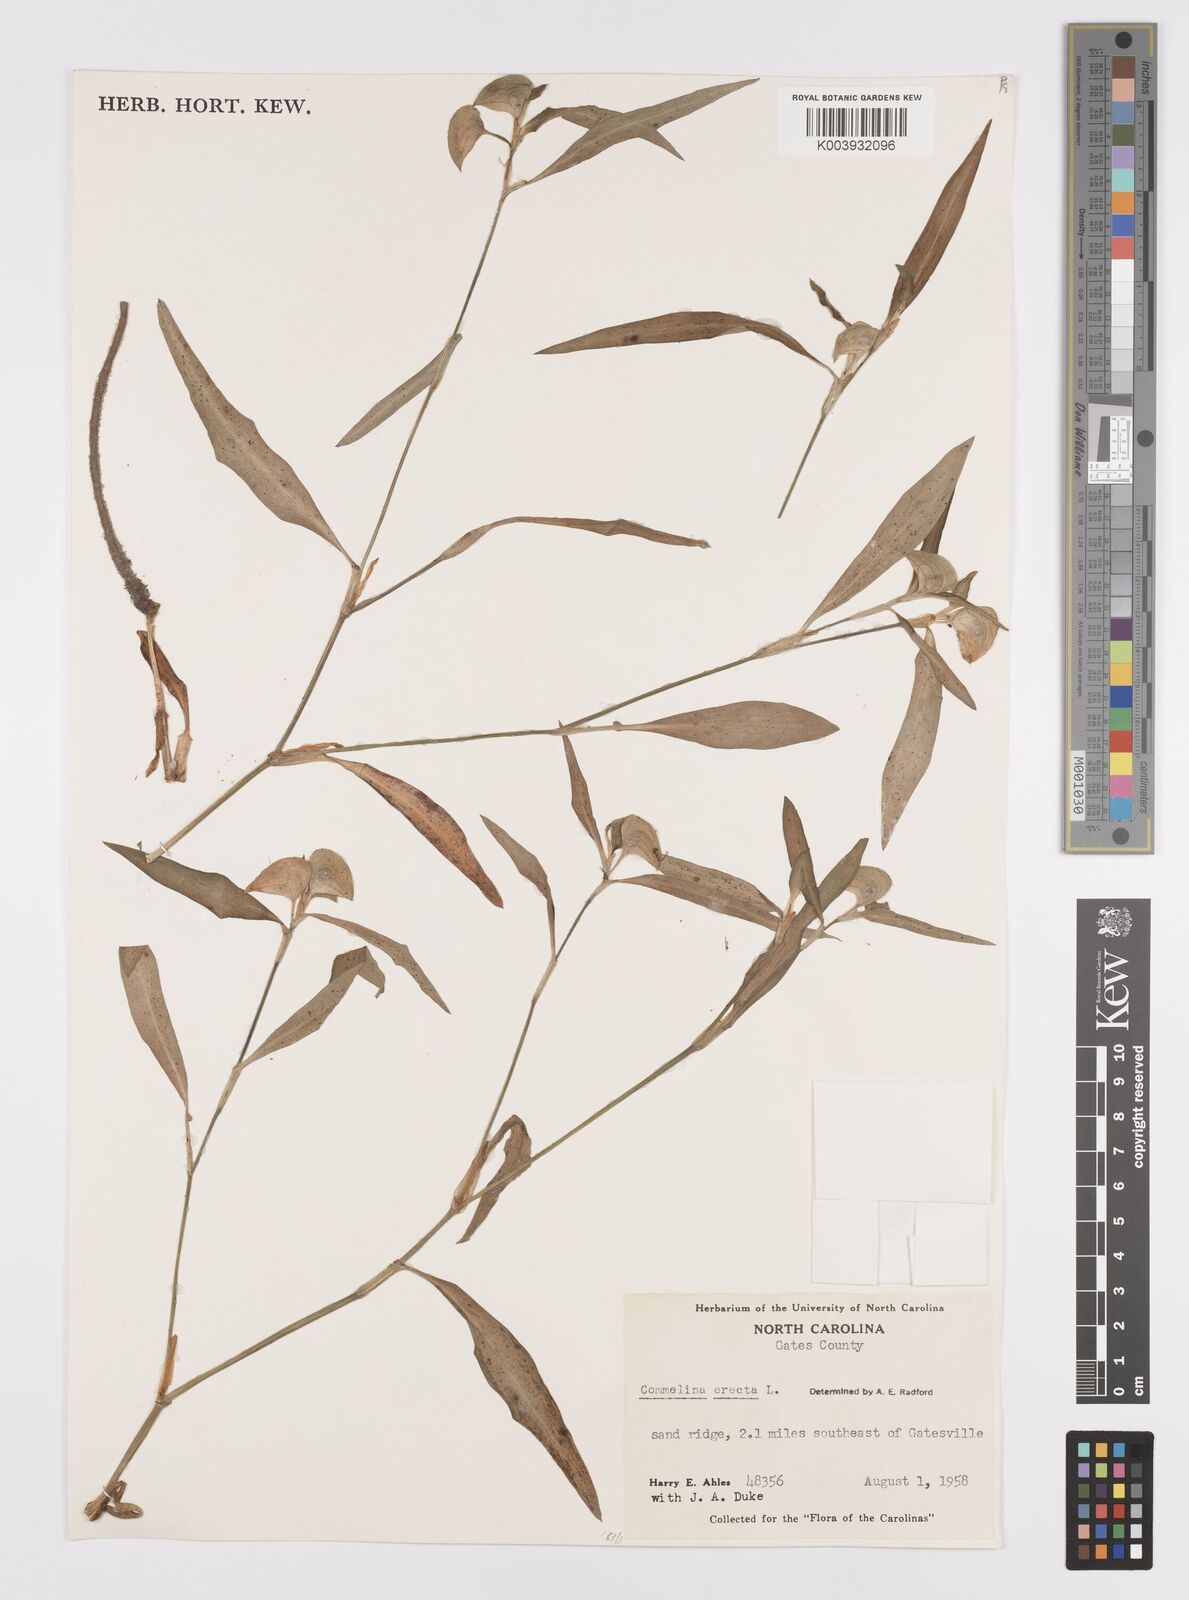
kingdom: Plantae
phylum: Tracheophyta
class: Liliopsida
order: Commelinales
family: Commelinaceae
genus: Commelina
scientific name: Commelina erecta
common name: Blousel blommetjie
